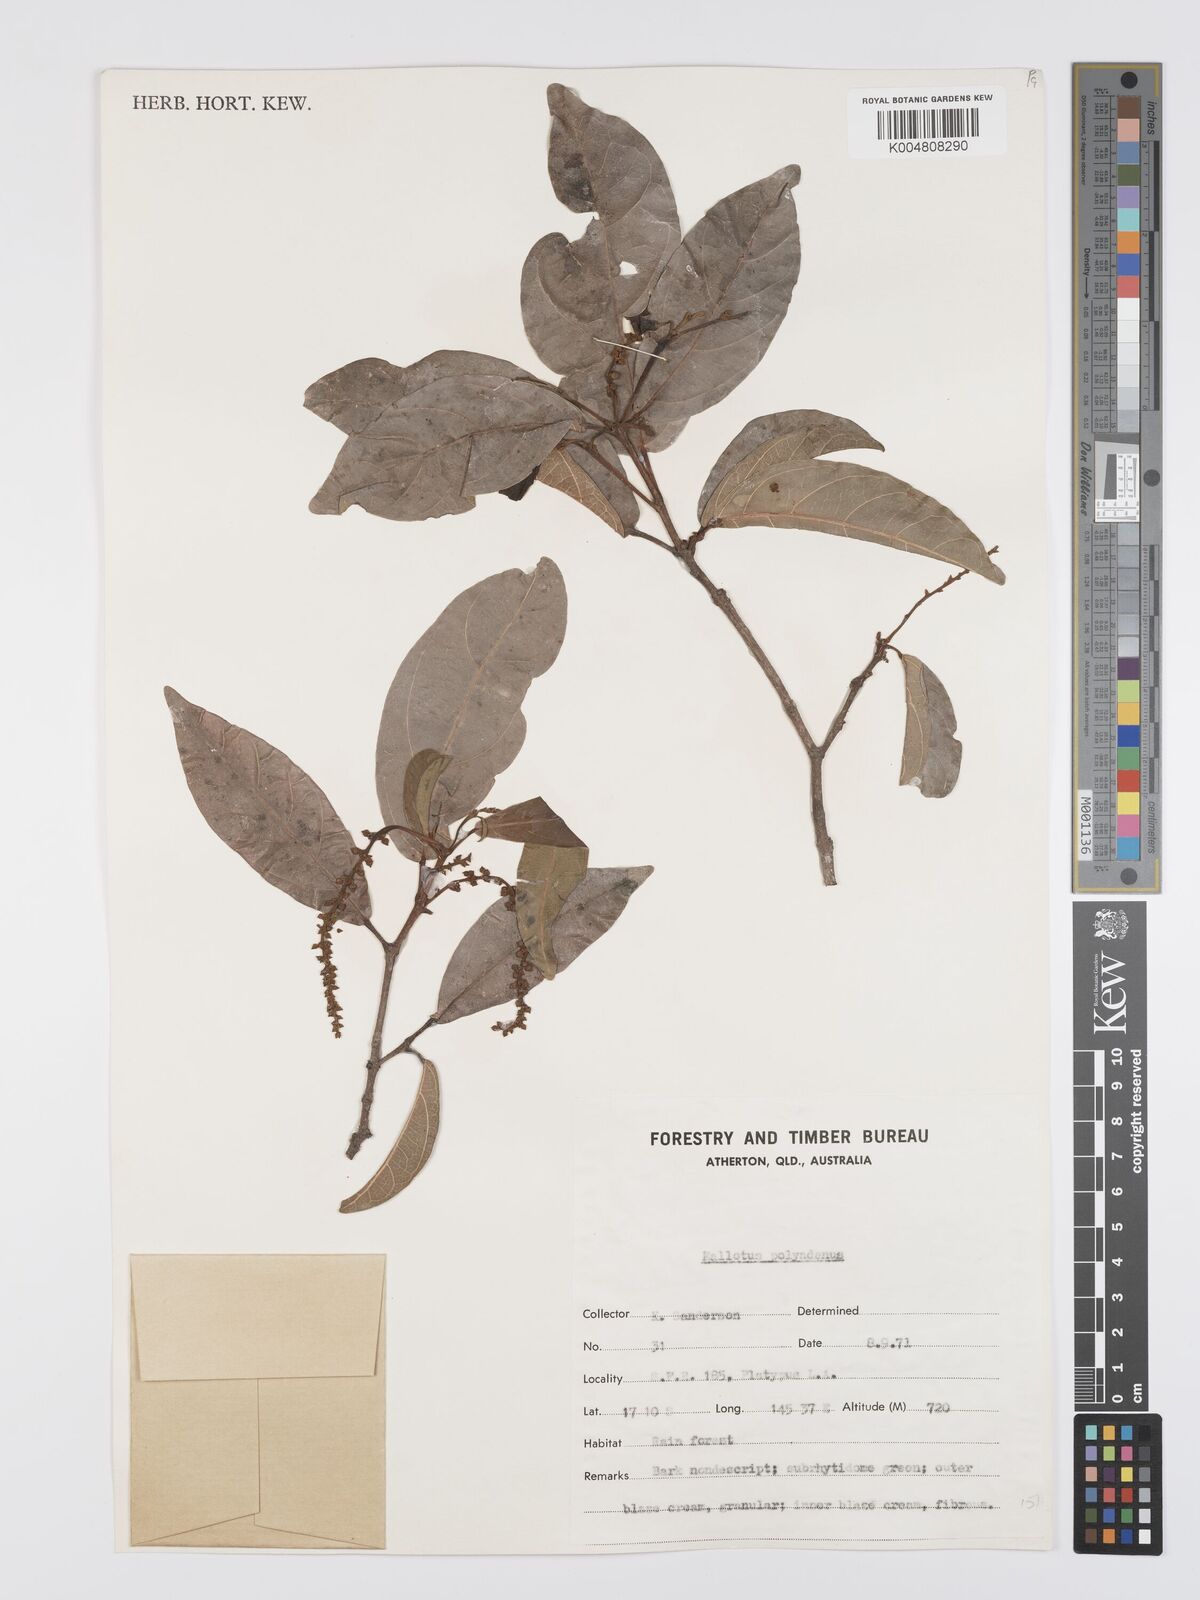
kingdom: Plantae
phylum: Tracheophyta
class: Magnoliopsida
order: Malpighiales
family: Euphorbiaceae
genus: Mallotus
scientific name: Mallotus polyadenos
